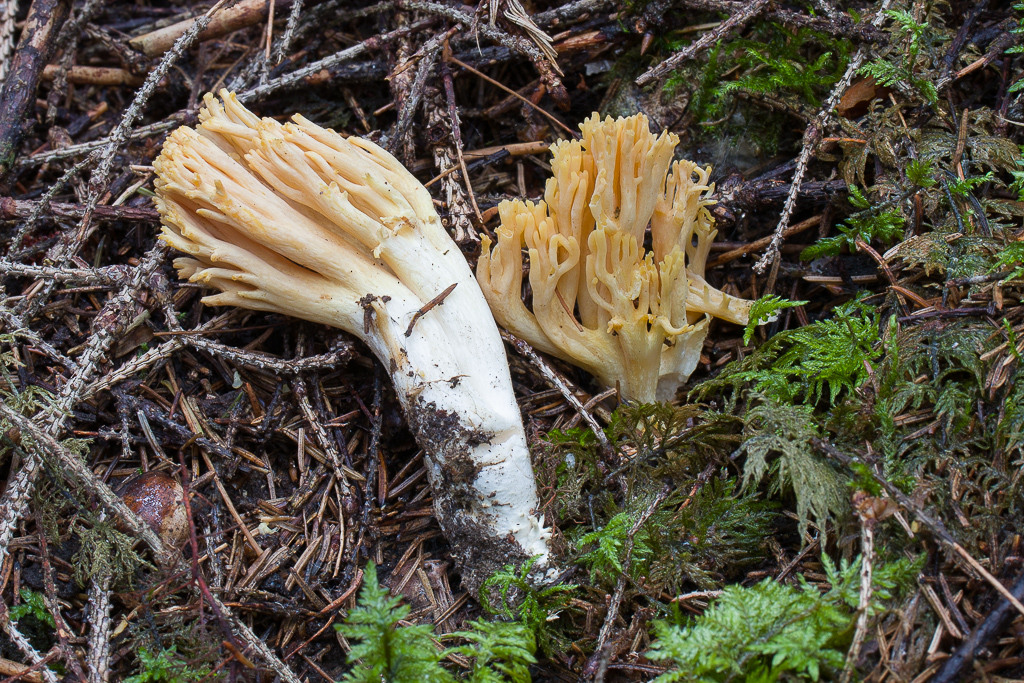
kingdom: Fungi
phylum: Basidiomycota
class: Agaricomycetes
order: Gomphales
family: Gomphaceae
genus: Ramaria
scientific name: Ramaria subtilis
